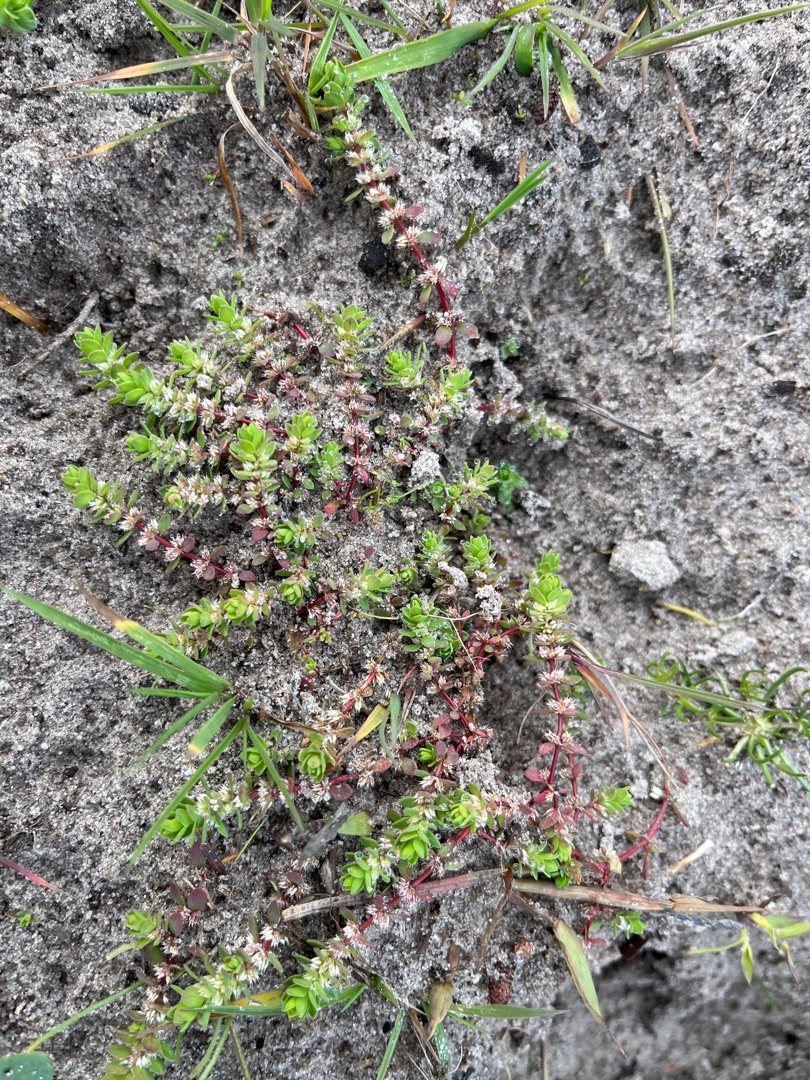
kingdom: Plantae
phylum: Tracheophyta
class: Magnoliopsida
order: Caryophyllales
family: Caryophyllaceae
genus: Illecebrum
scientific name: Illecebrum verticillatum
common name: Bruskbæger
